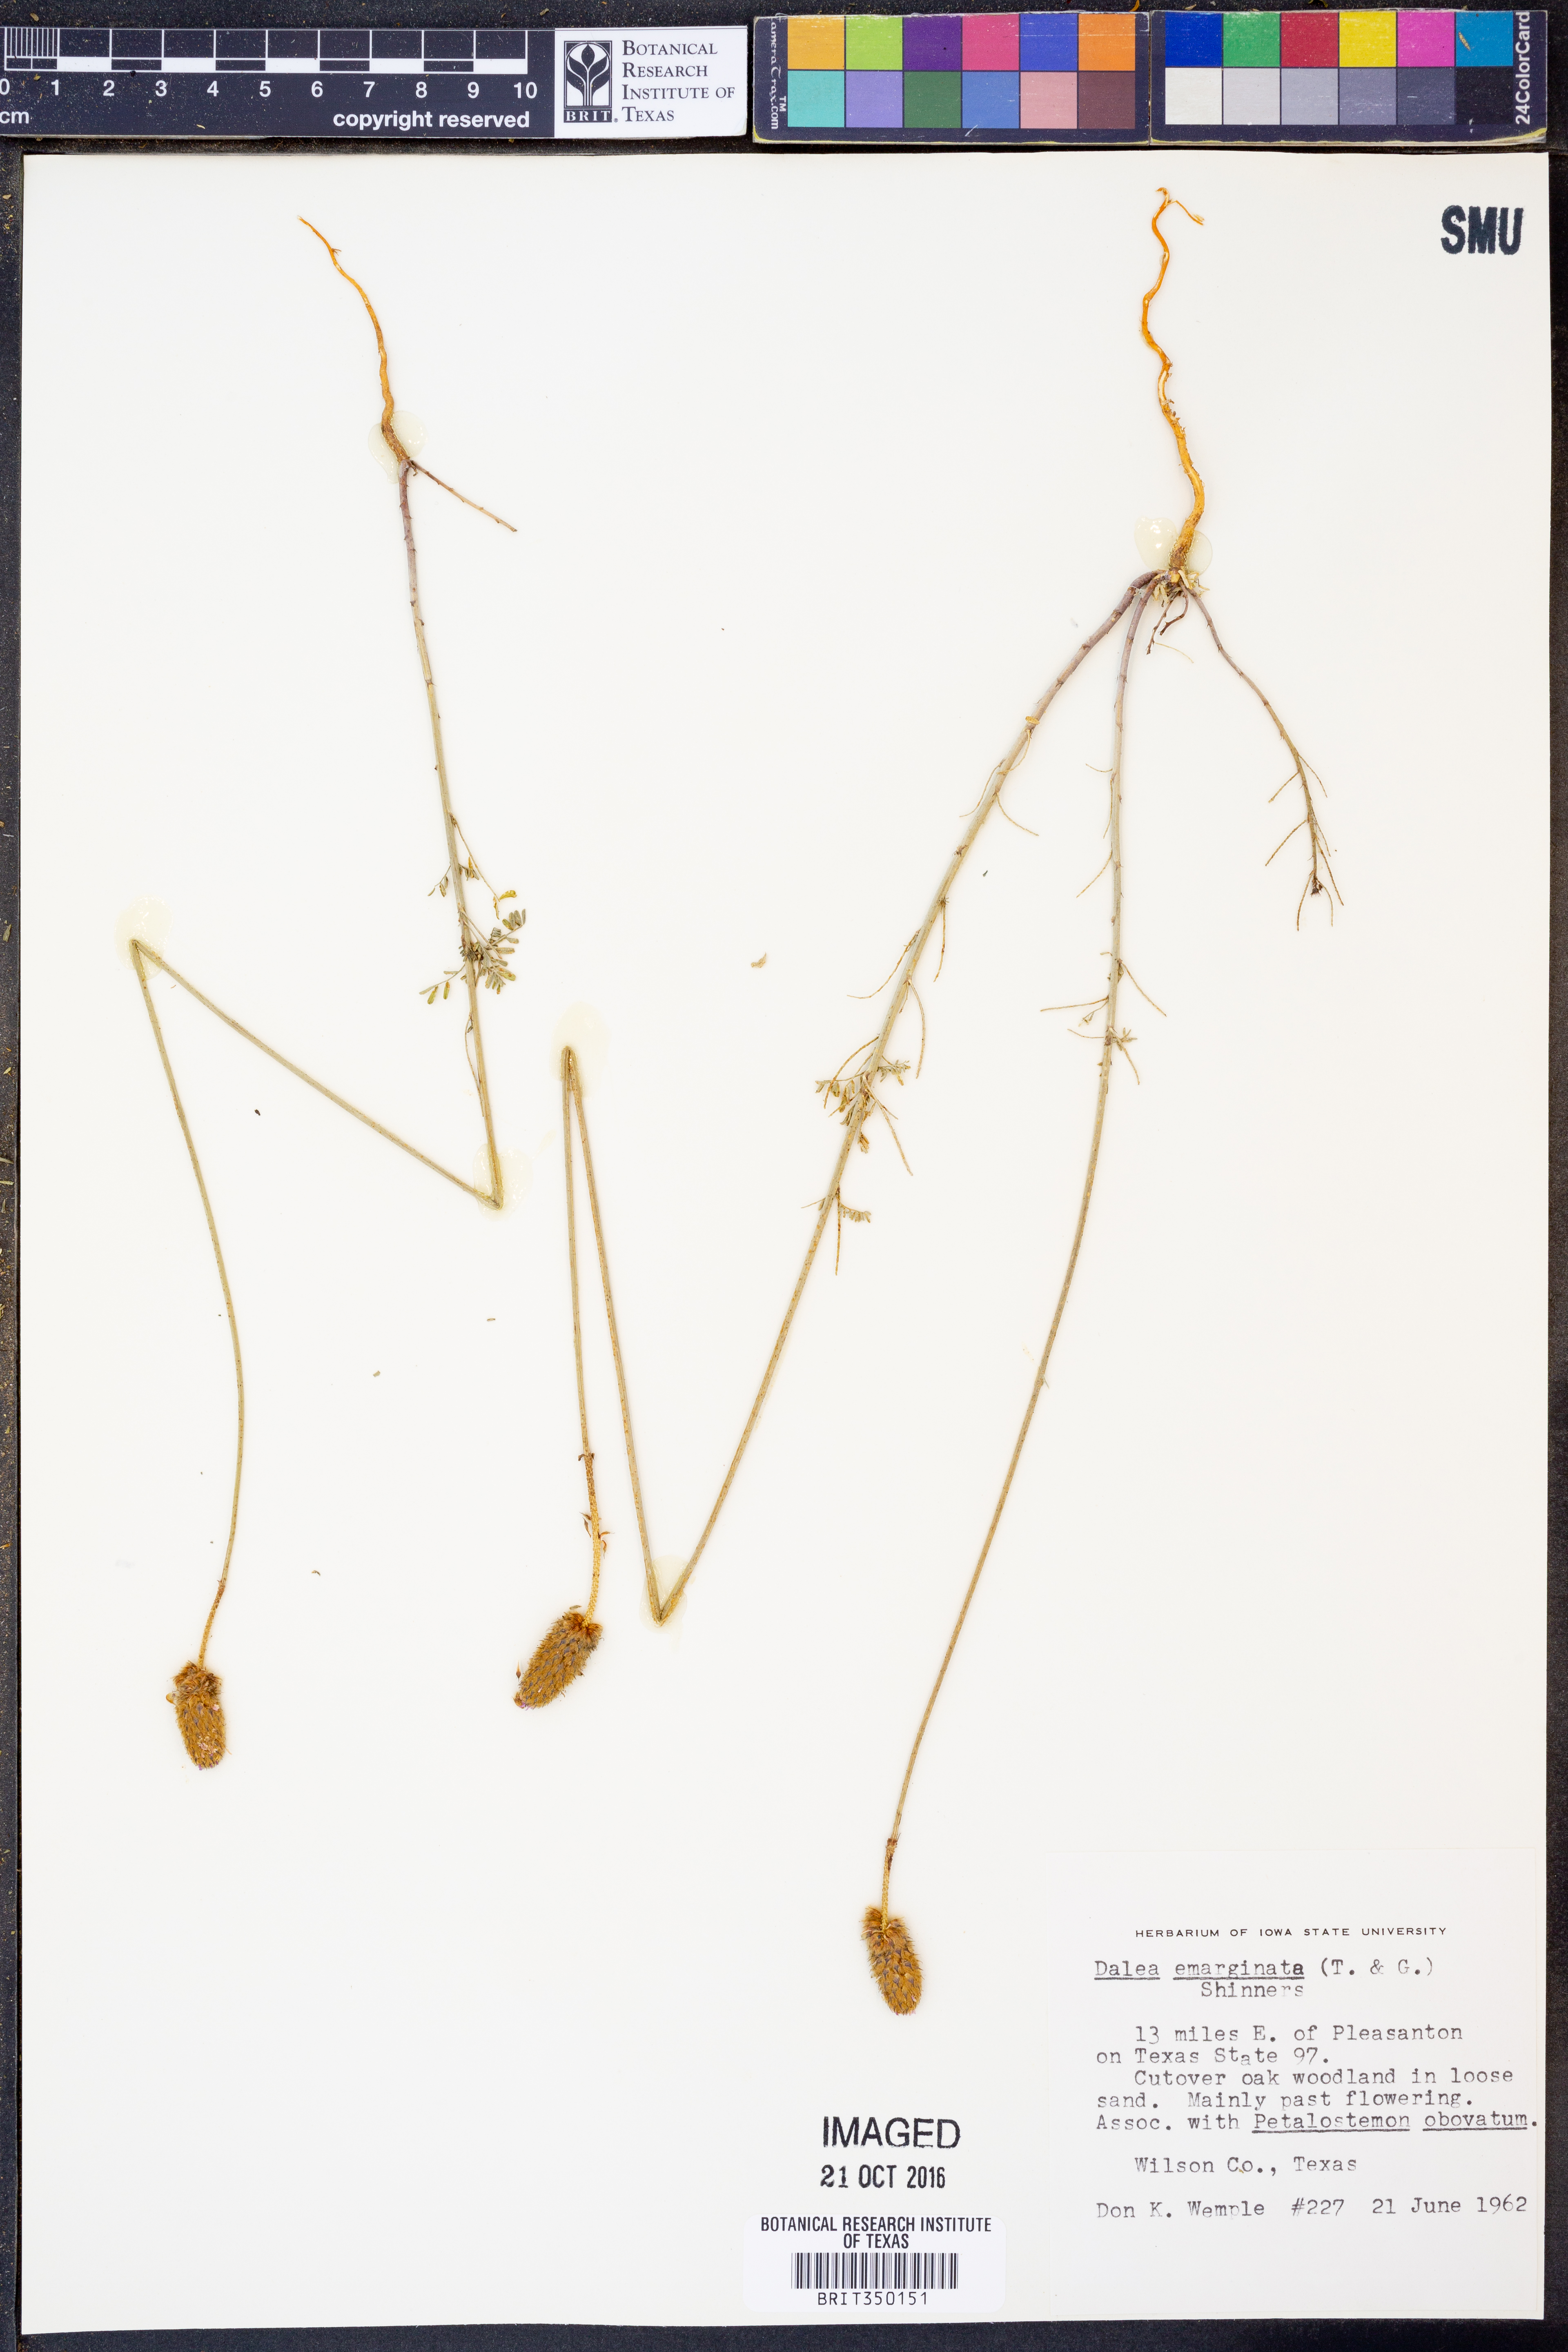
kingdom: Plantae
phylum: Tracheophyta
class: Magnoliopsida
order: Fabales
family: Fabaceae
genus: Dalea
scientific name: Dalea emarginata
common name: Wedgeleaf prairie clover
